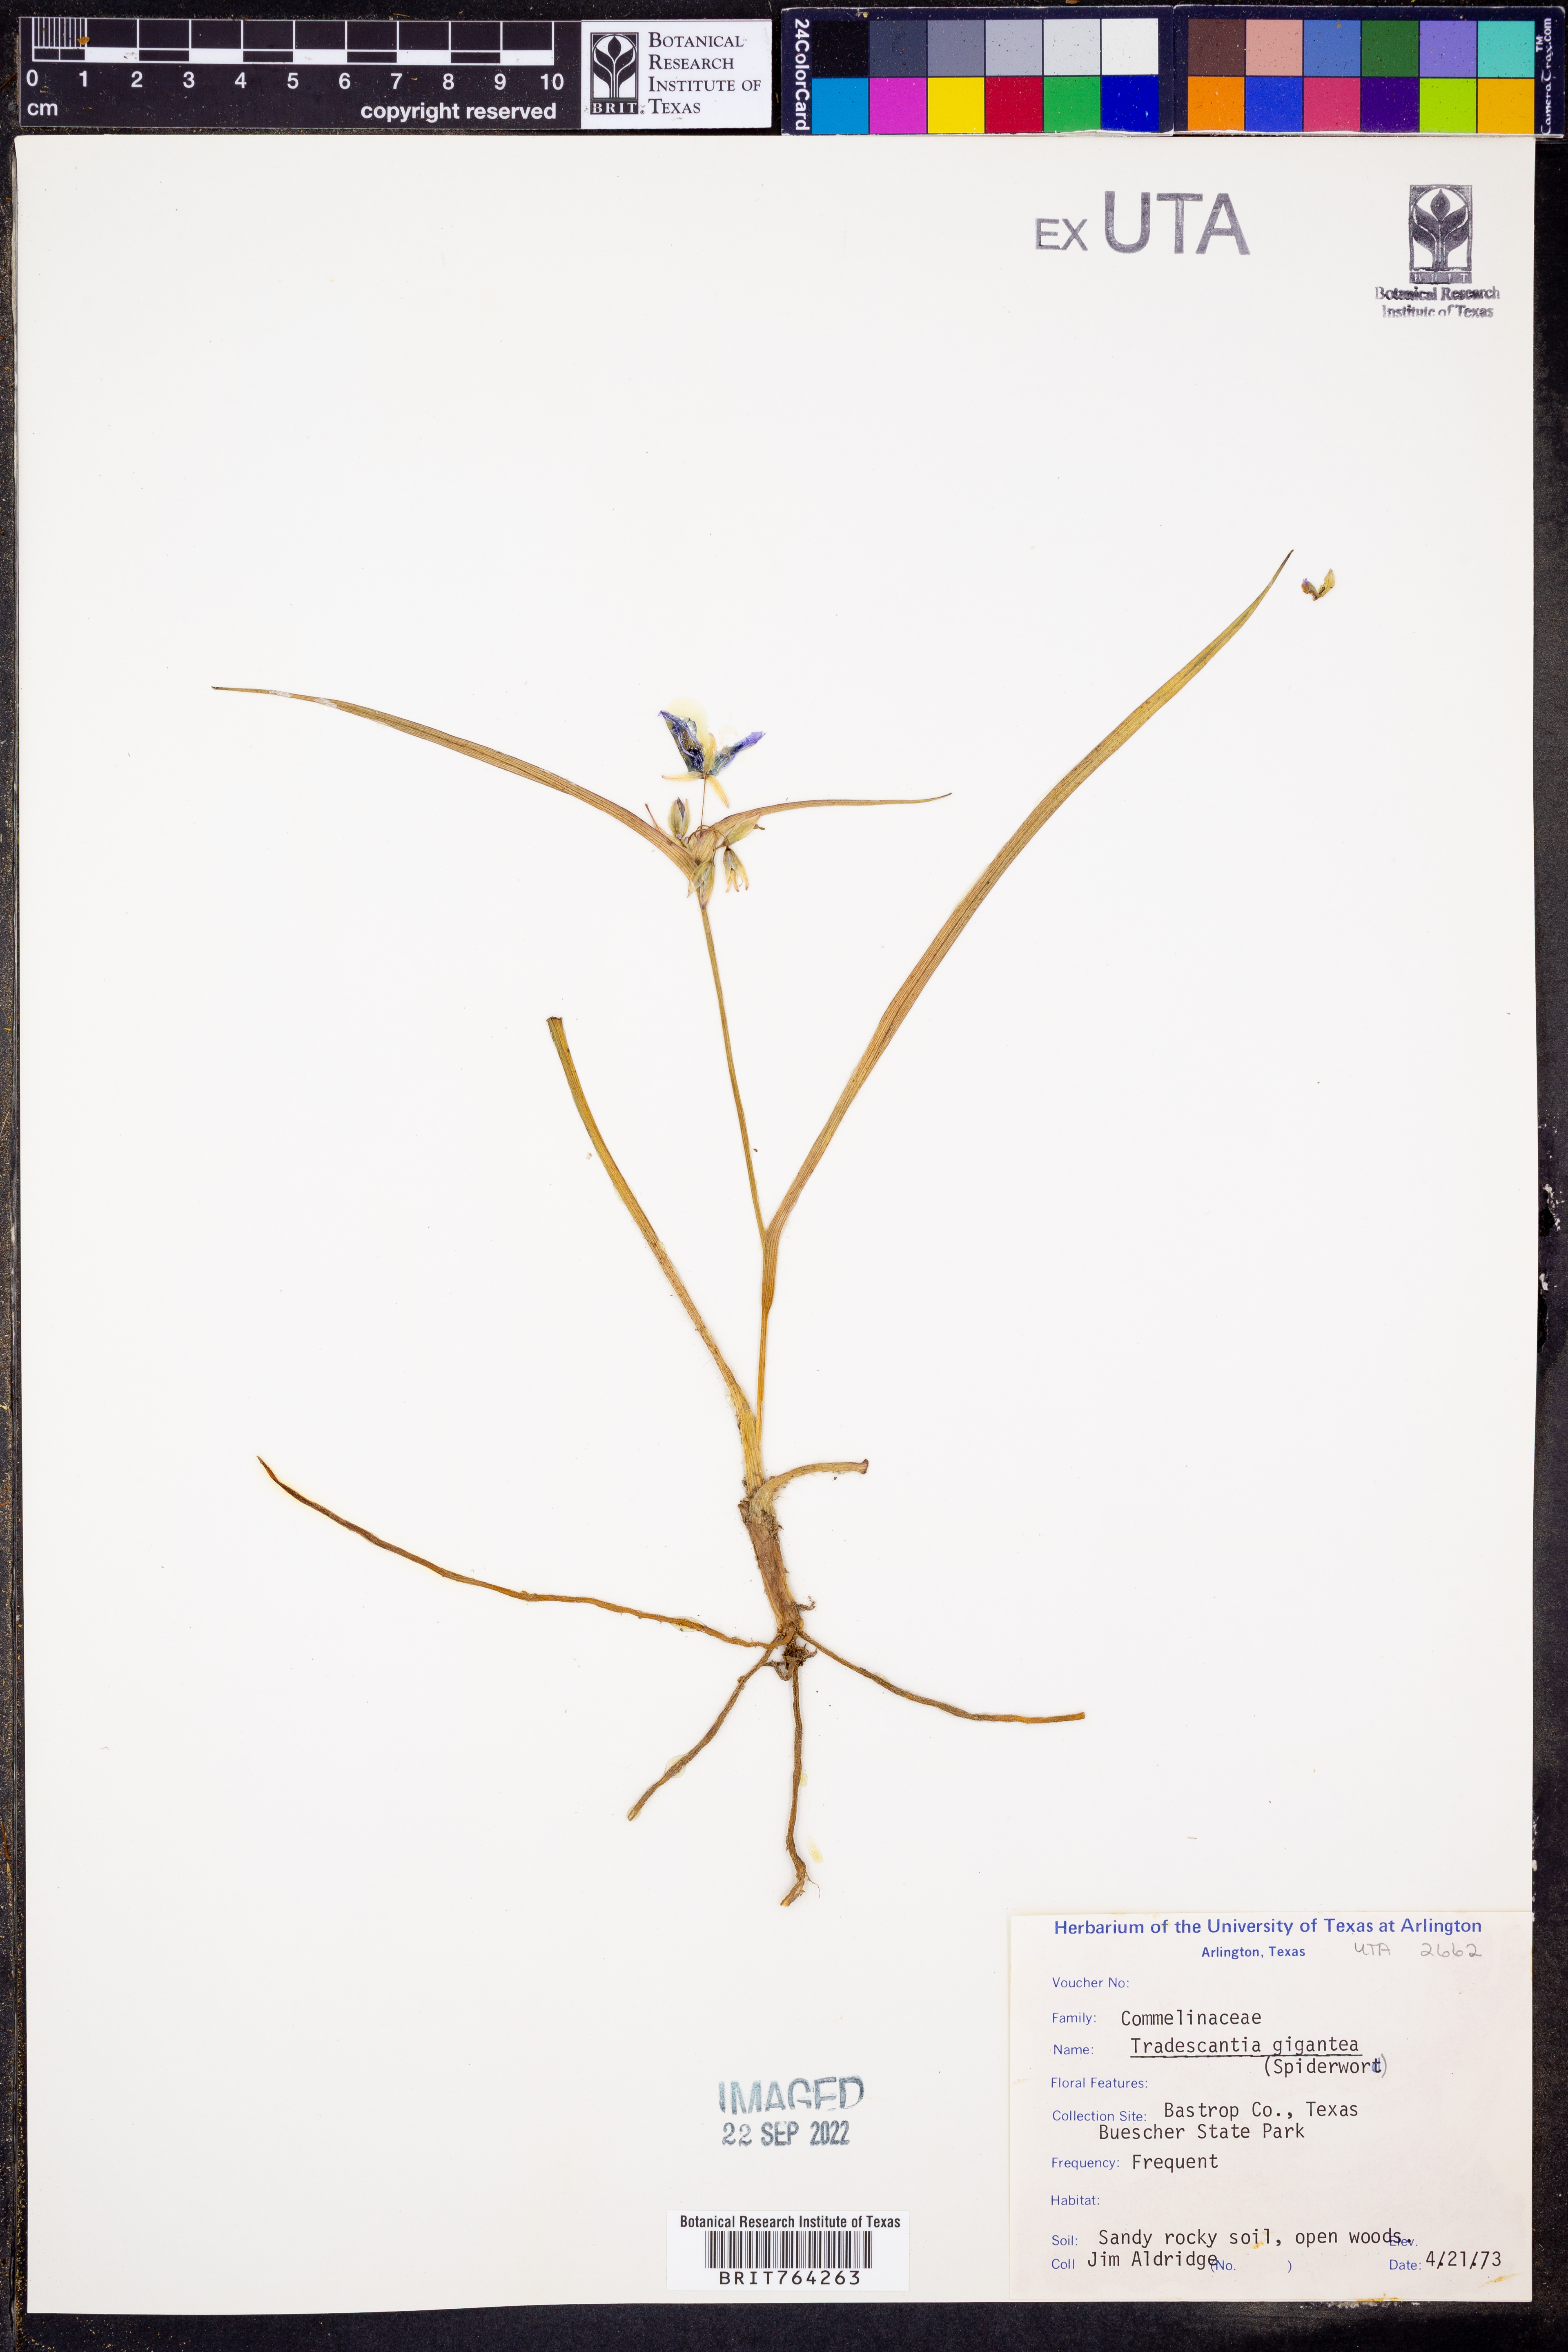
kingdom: Plantae
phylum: Tracheophyta
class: Liliopsida
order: Commelinales
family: Commelinaceae
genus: Tradescantia
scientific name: Tradescantia gigantea
